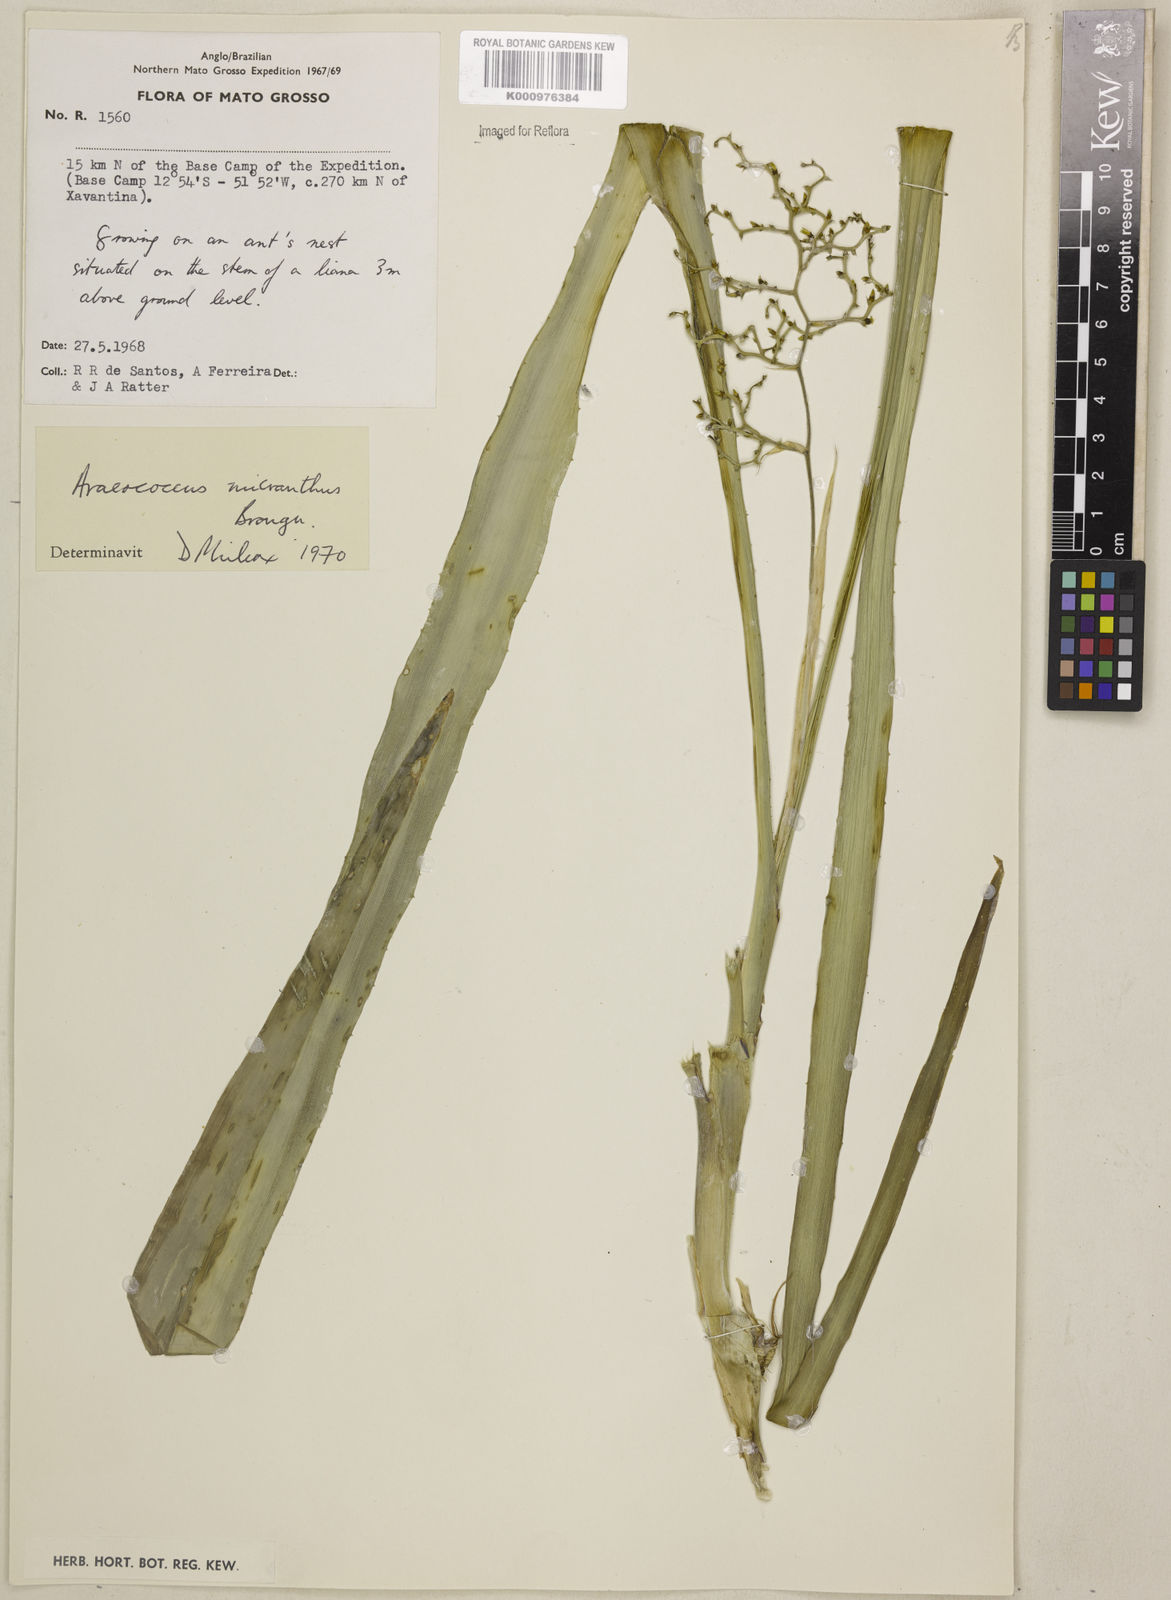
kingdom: Plantae
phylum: Tracheophyta
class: Liliopsida
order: Poales
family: Bromeliaceae
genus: Araeococcus
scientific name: Araeococcus micranthus
